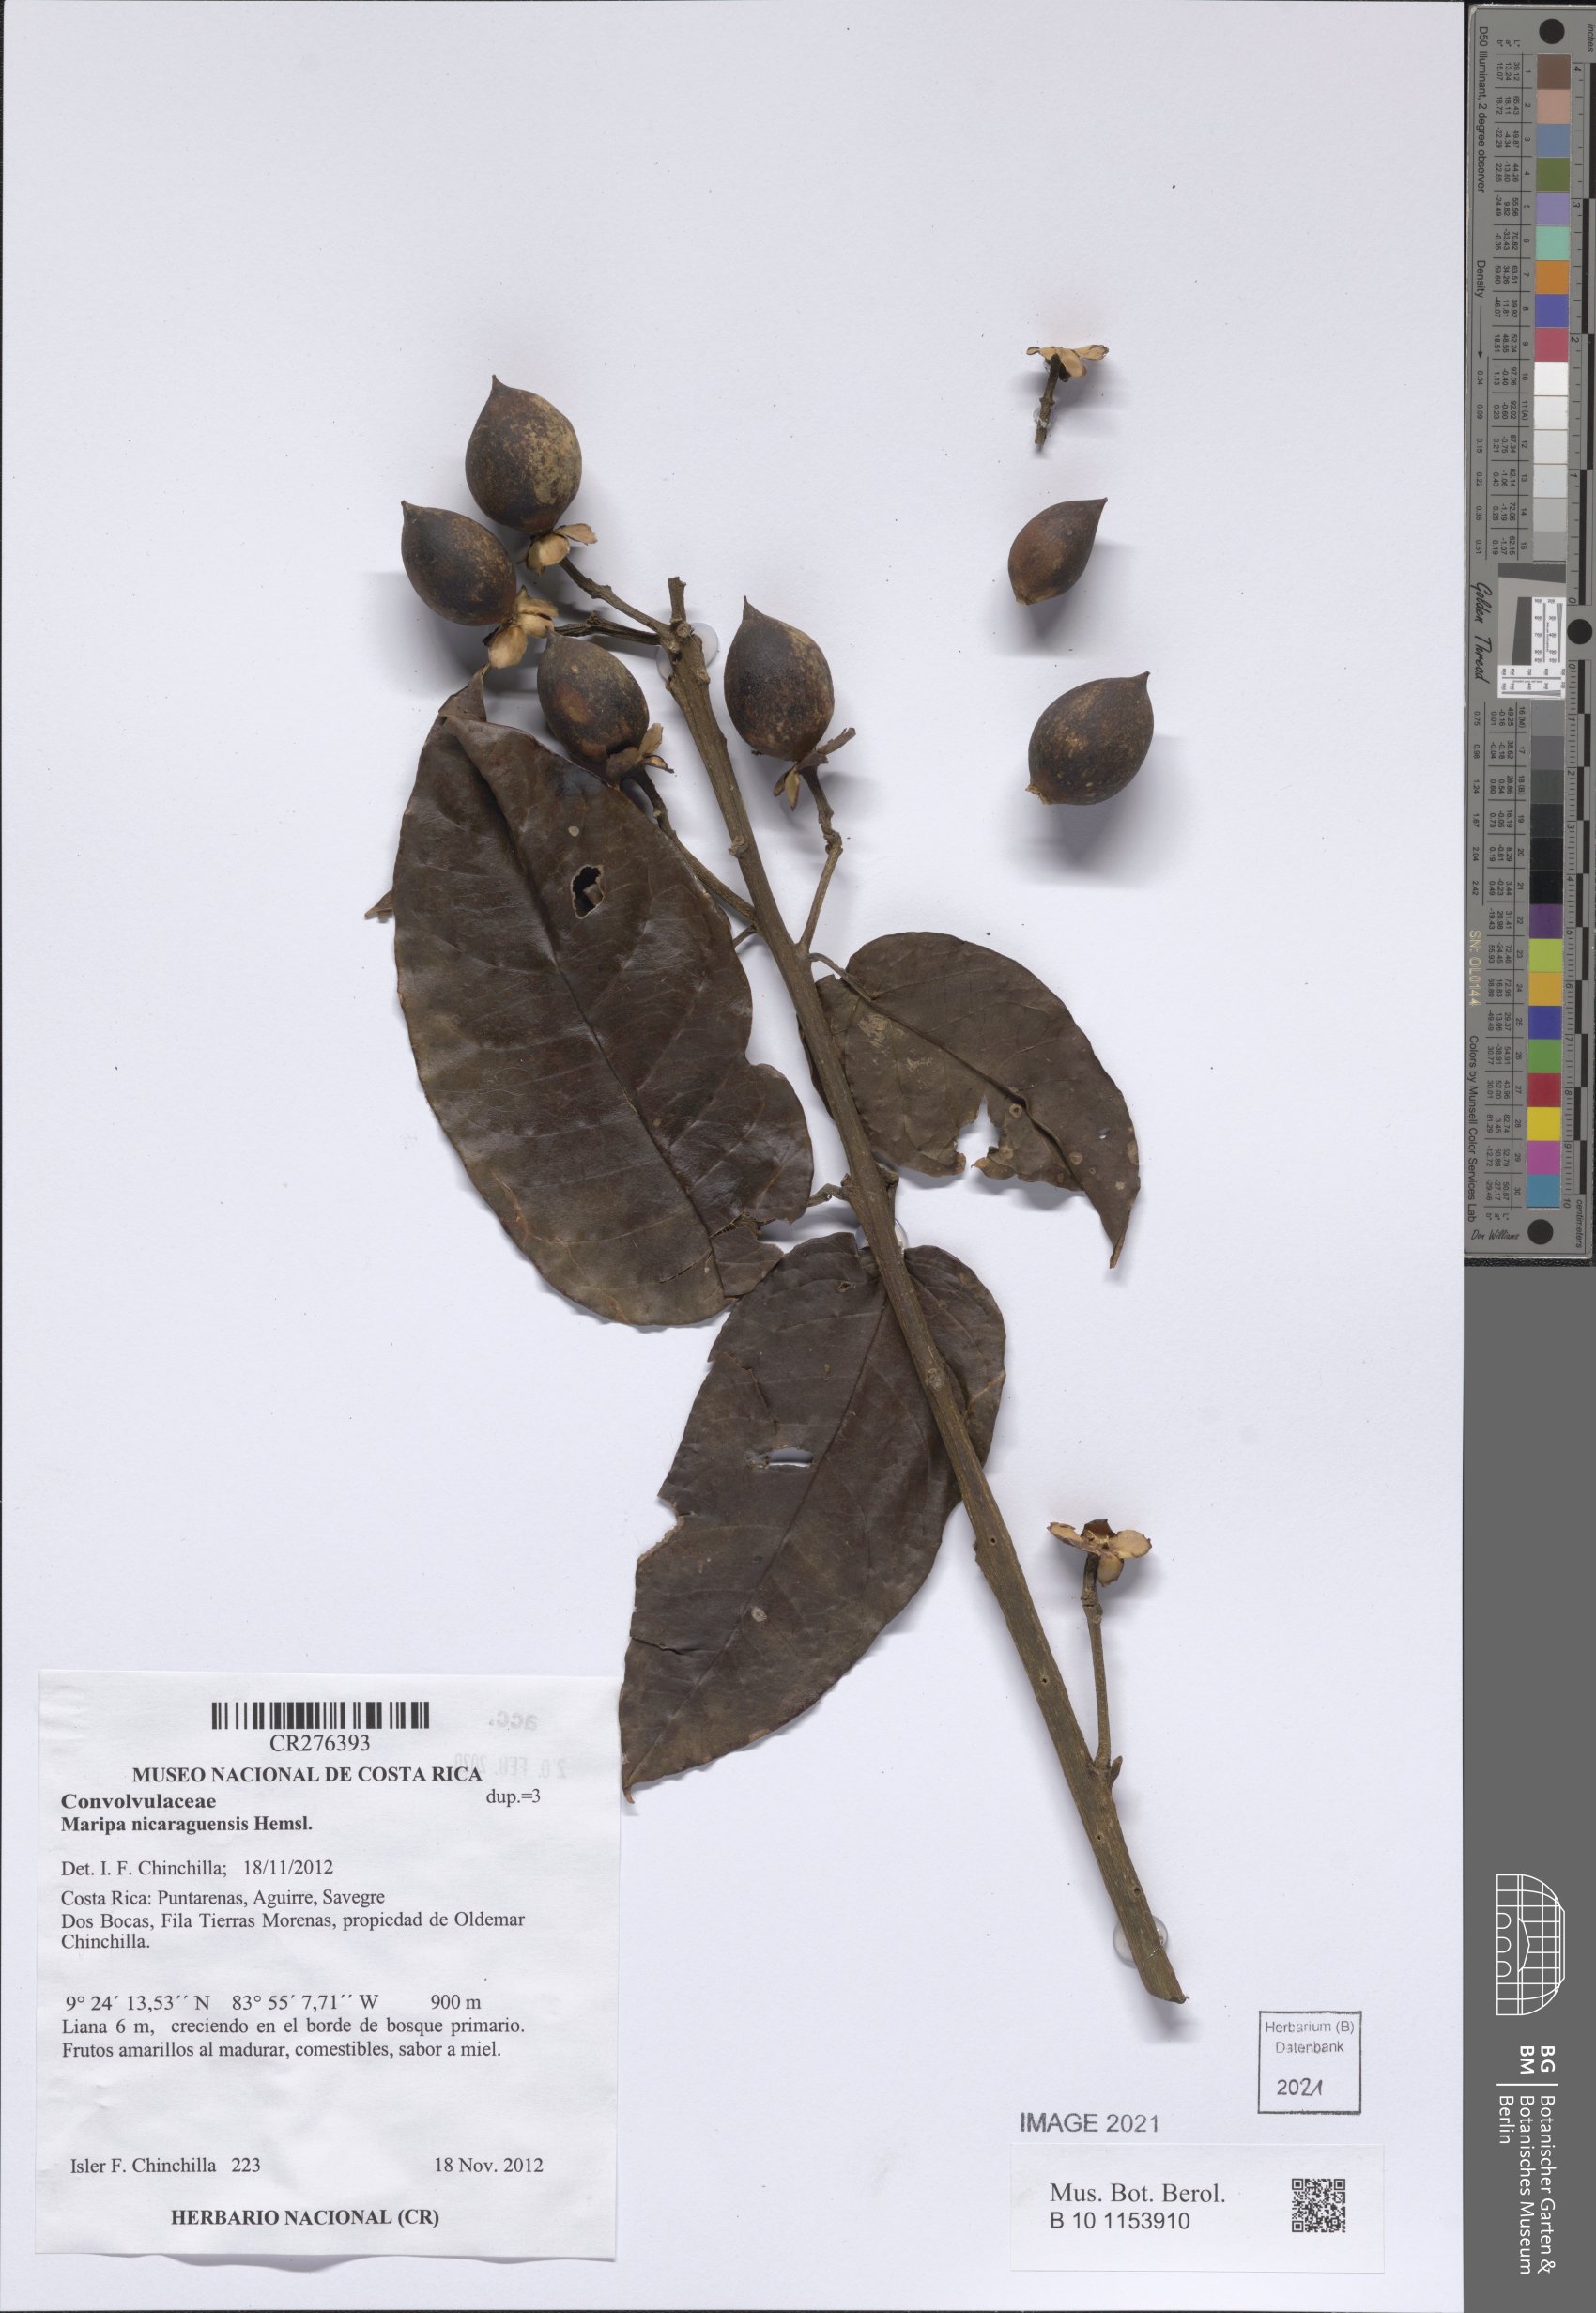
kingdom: Plantae
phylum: Tracheophyta
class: Magnoliopsida
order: Solanales
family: Convolvulaceae
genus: Maripa
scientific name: Maripa nicaraguensis
